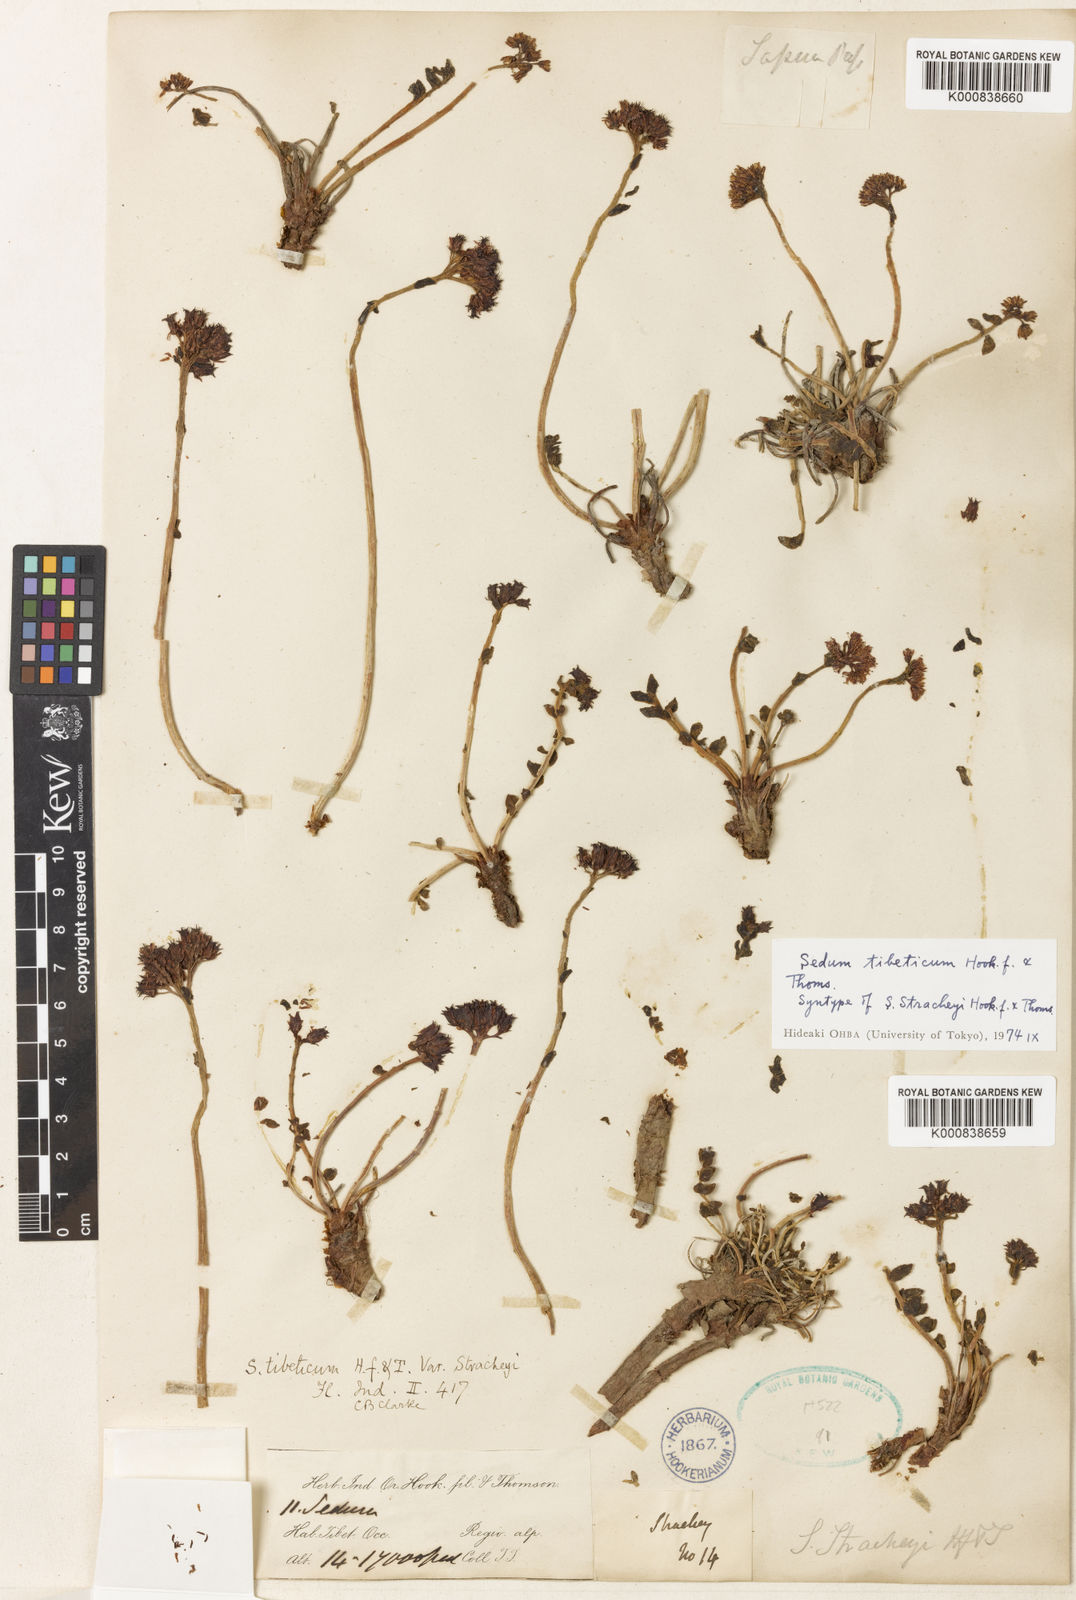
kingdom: Plantae
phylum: Tracheophyta
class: Magnoliopsida
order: Saxifragales
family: Crassulaceae
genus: Rhodiola
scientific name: Rhodiola tibetica
